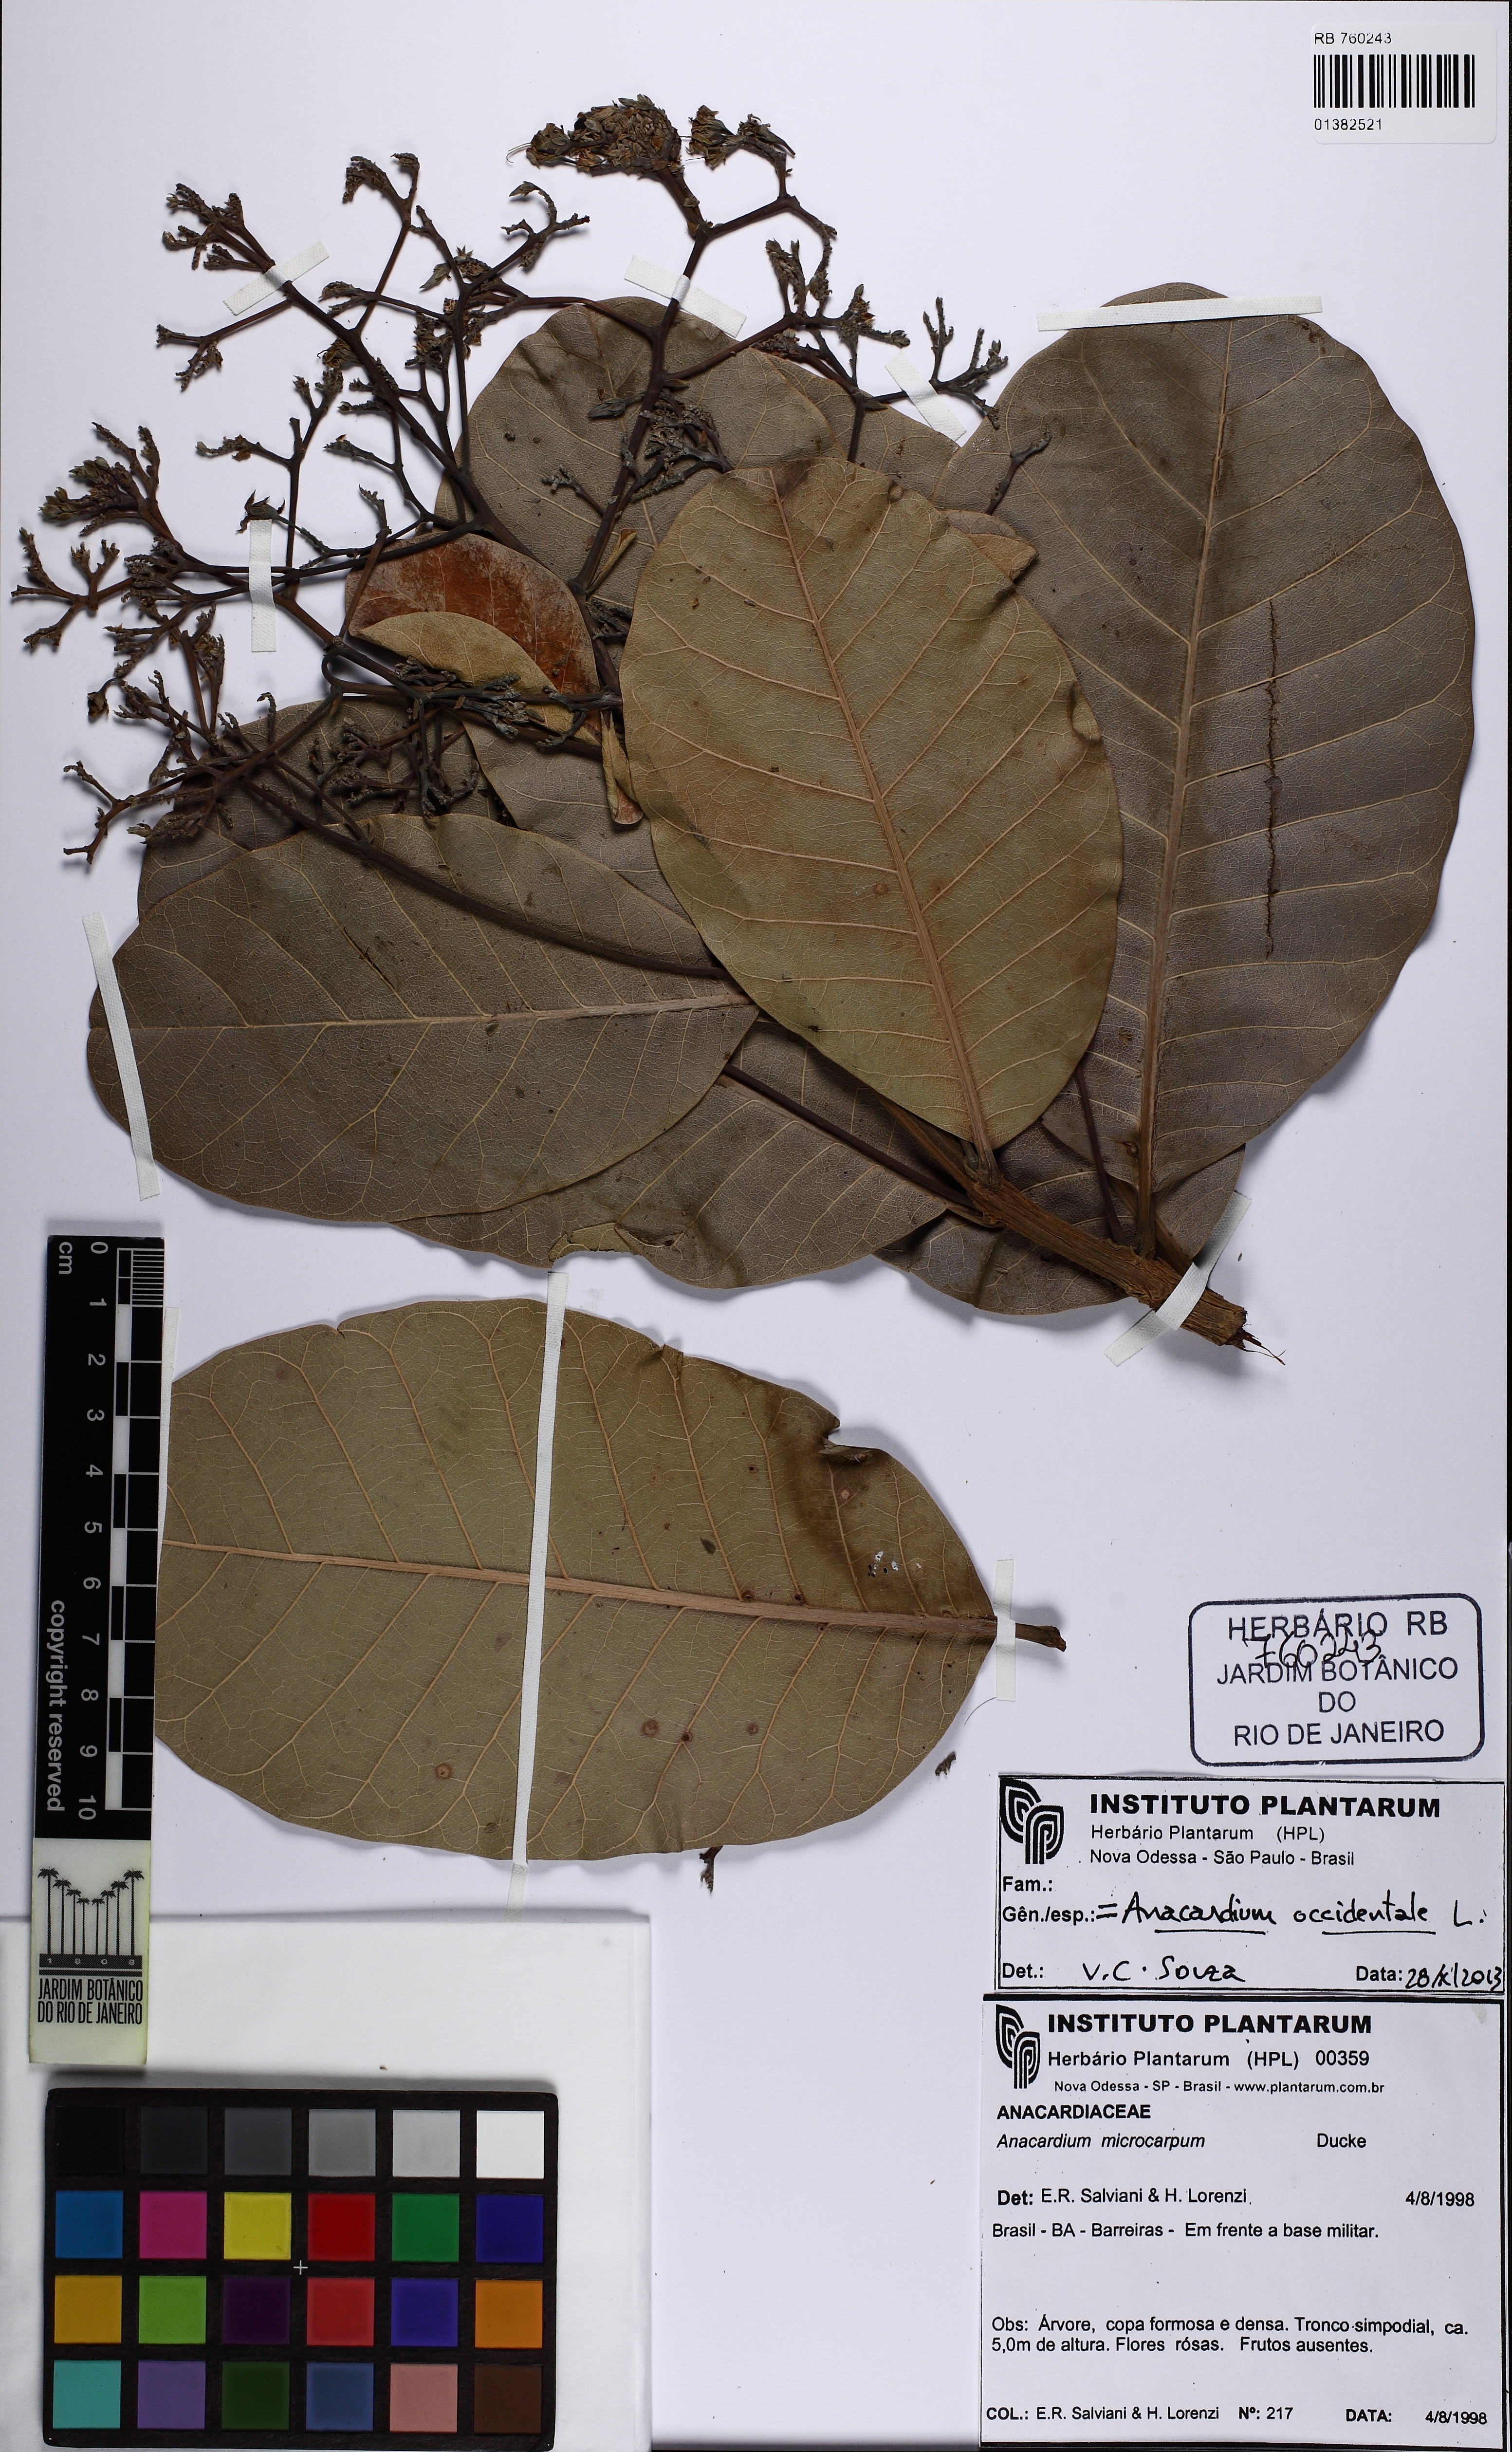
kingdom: Plantae
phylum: Tracheophyta
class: Magnoliopsida
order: Sapindales
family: Anacardiaceae
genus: Anacardium
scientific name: Anacardium occidentale
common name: Cashew
